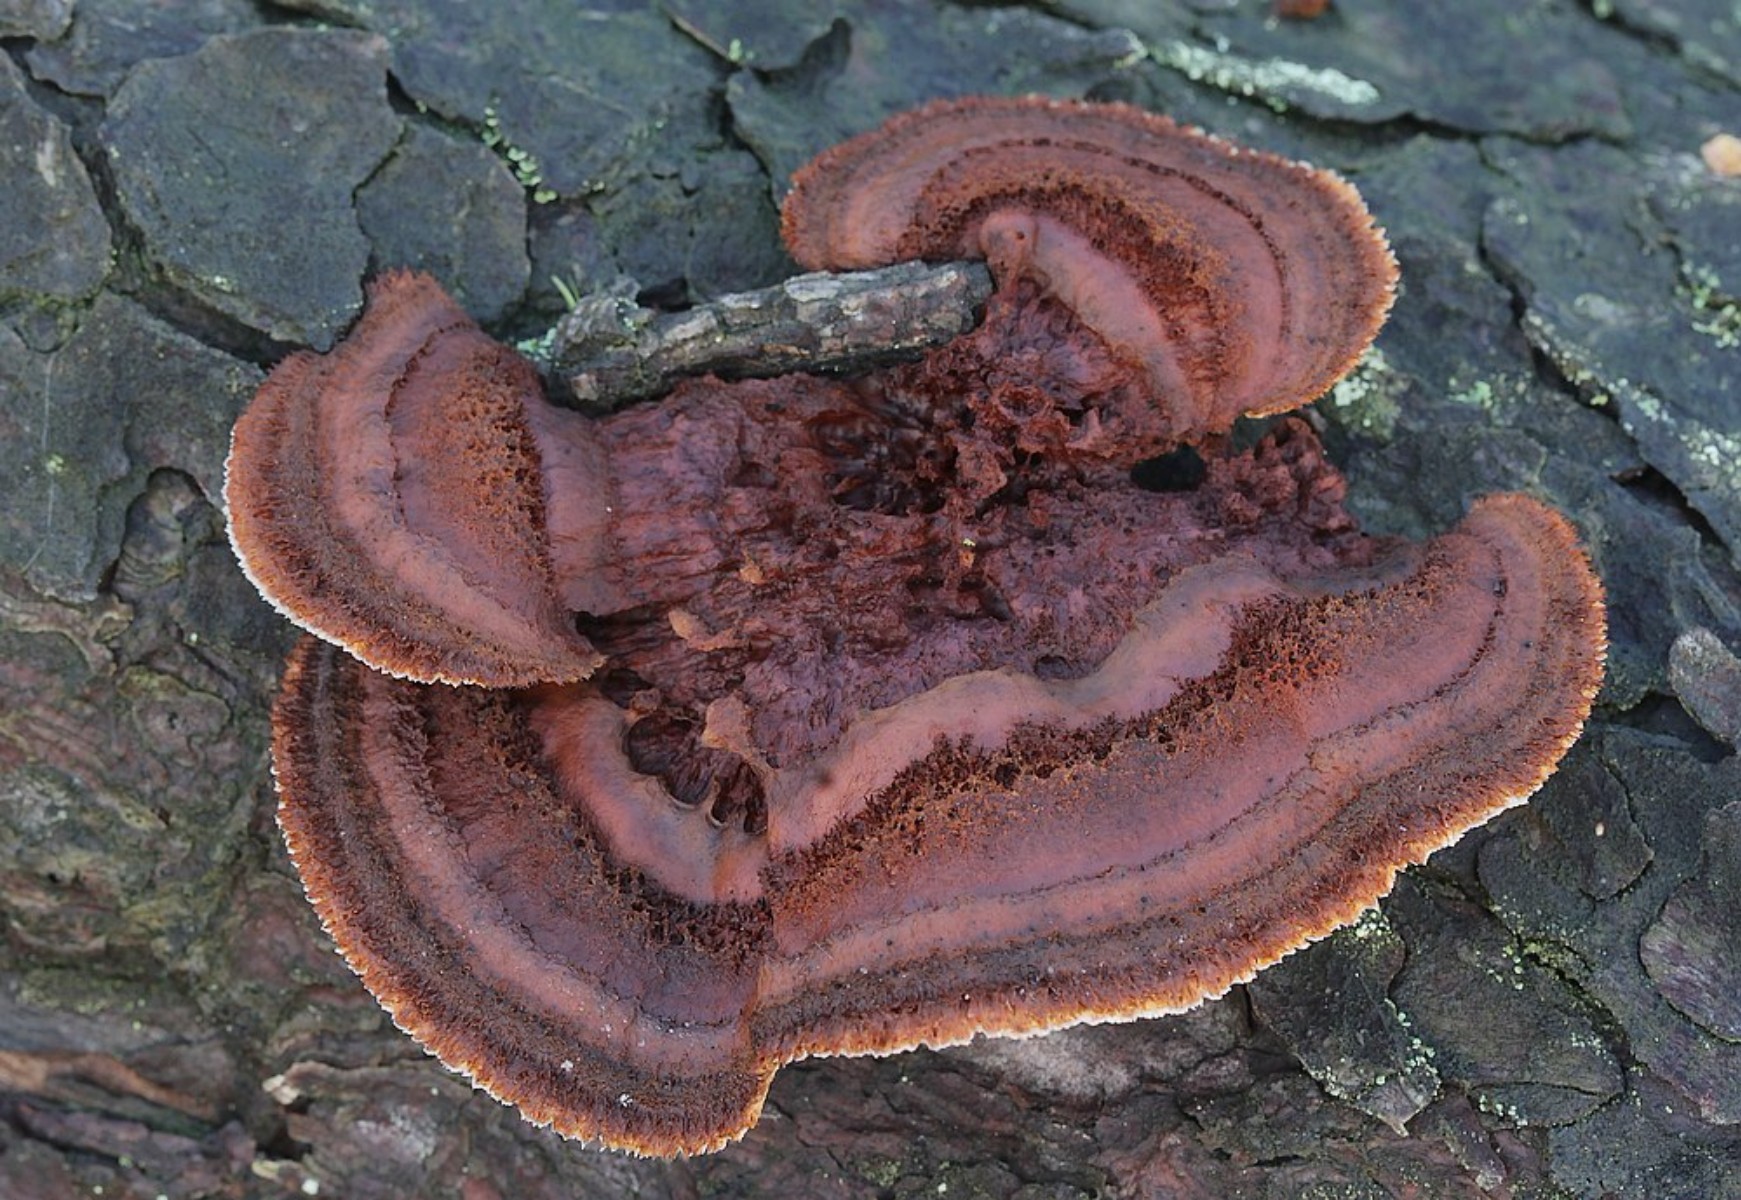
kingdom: Fungi
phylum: Basidiomycota
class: Agaricomycetes
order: Gloeophyllales
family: Gloeophyllaceae
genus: Gloeophyllum
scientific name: Gloeophyllum sepiarium
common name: fyrre-korkhat
